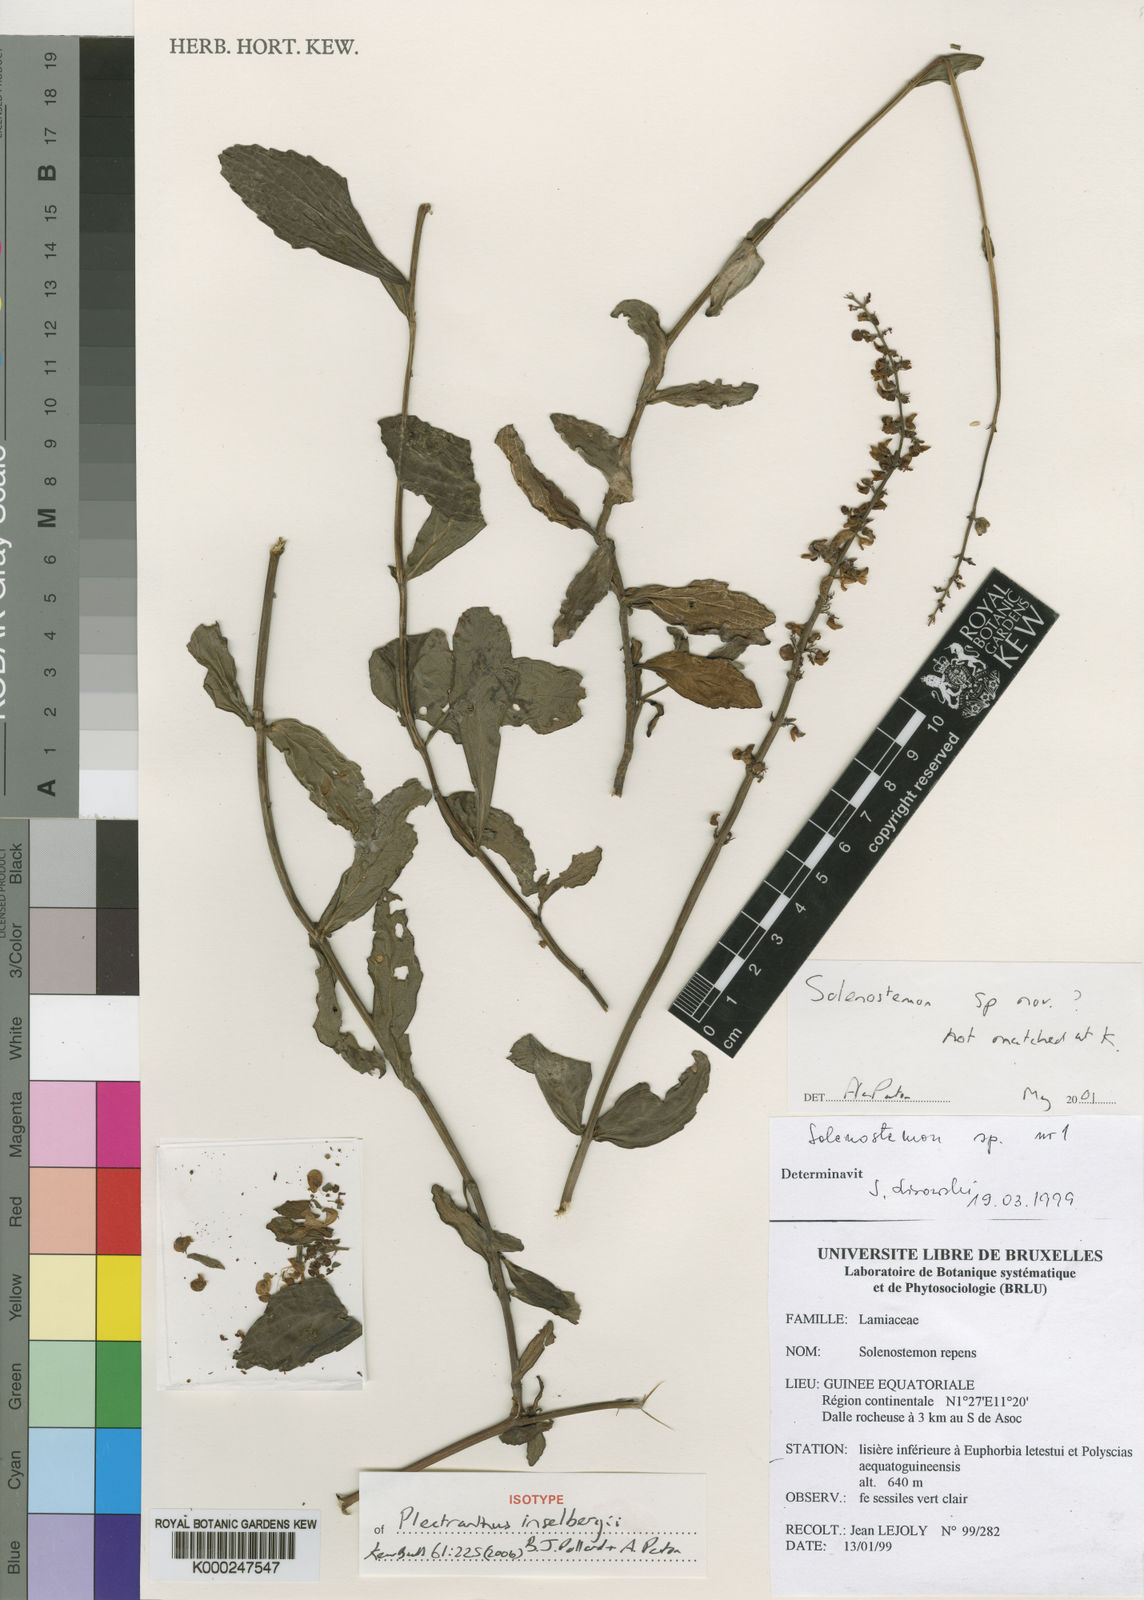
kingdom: Plantae
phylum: Tracheophyta
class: Magnoliopsida
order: Lamiales
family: Lamiaceae
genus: Coleus
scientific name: Coleus inselbergi
